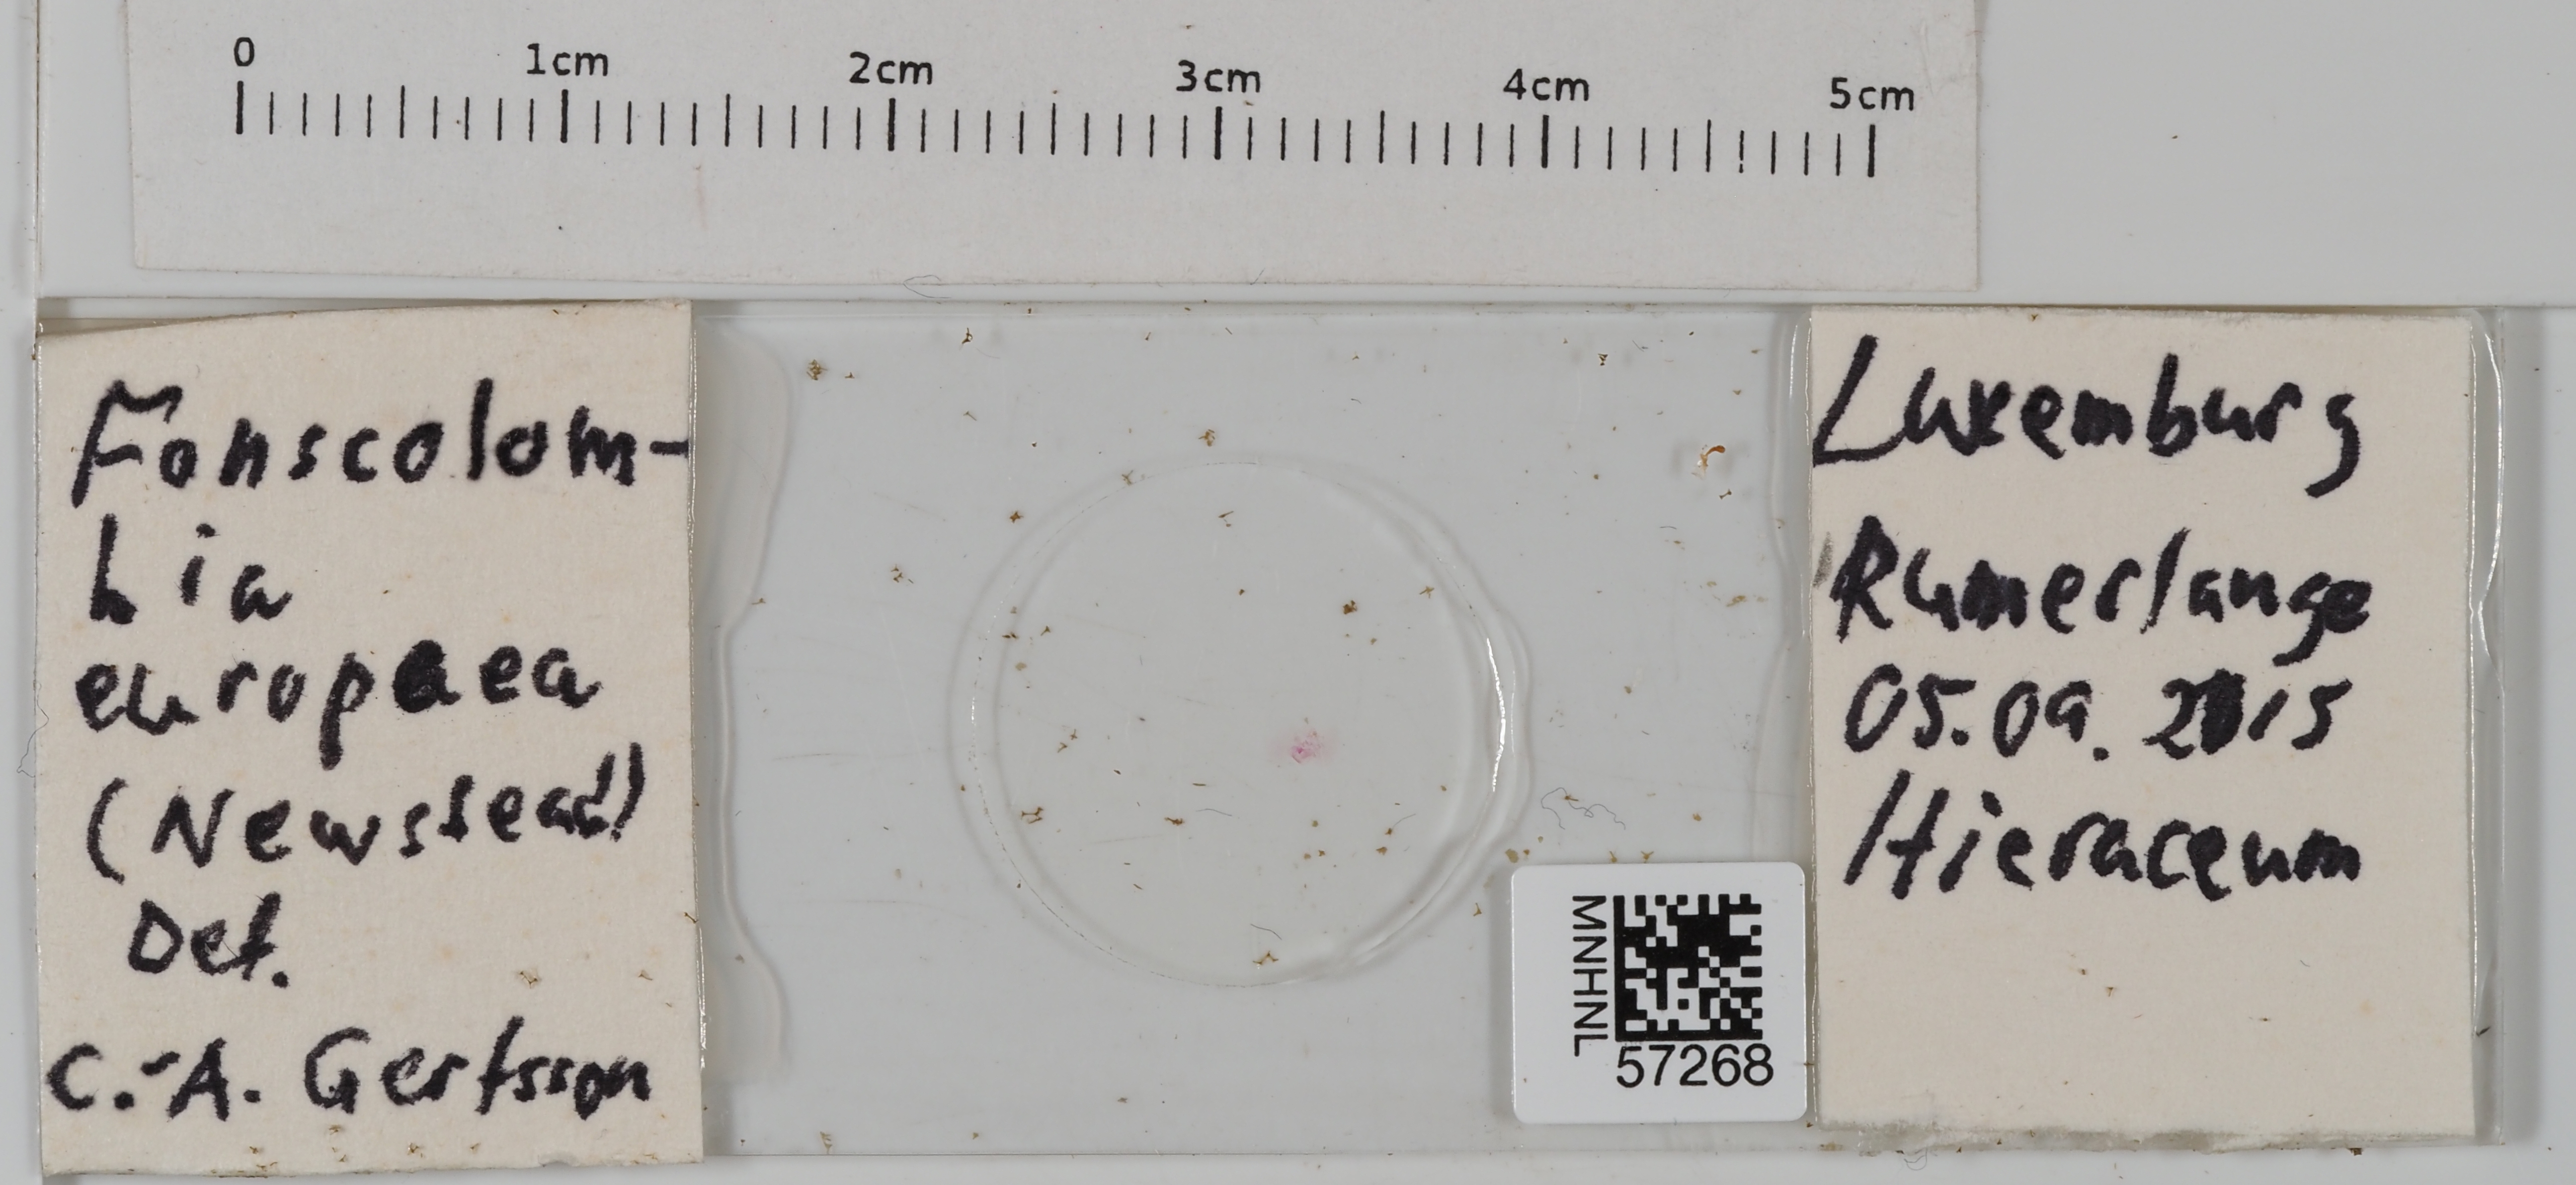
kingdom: Animalia
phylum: Arthropoda
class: Insecta
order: Hemiptera
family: Pseudococcidae
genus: Euripersia
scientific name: Euripersia europaea
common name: Grass mealybug
